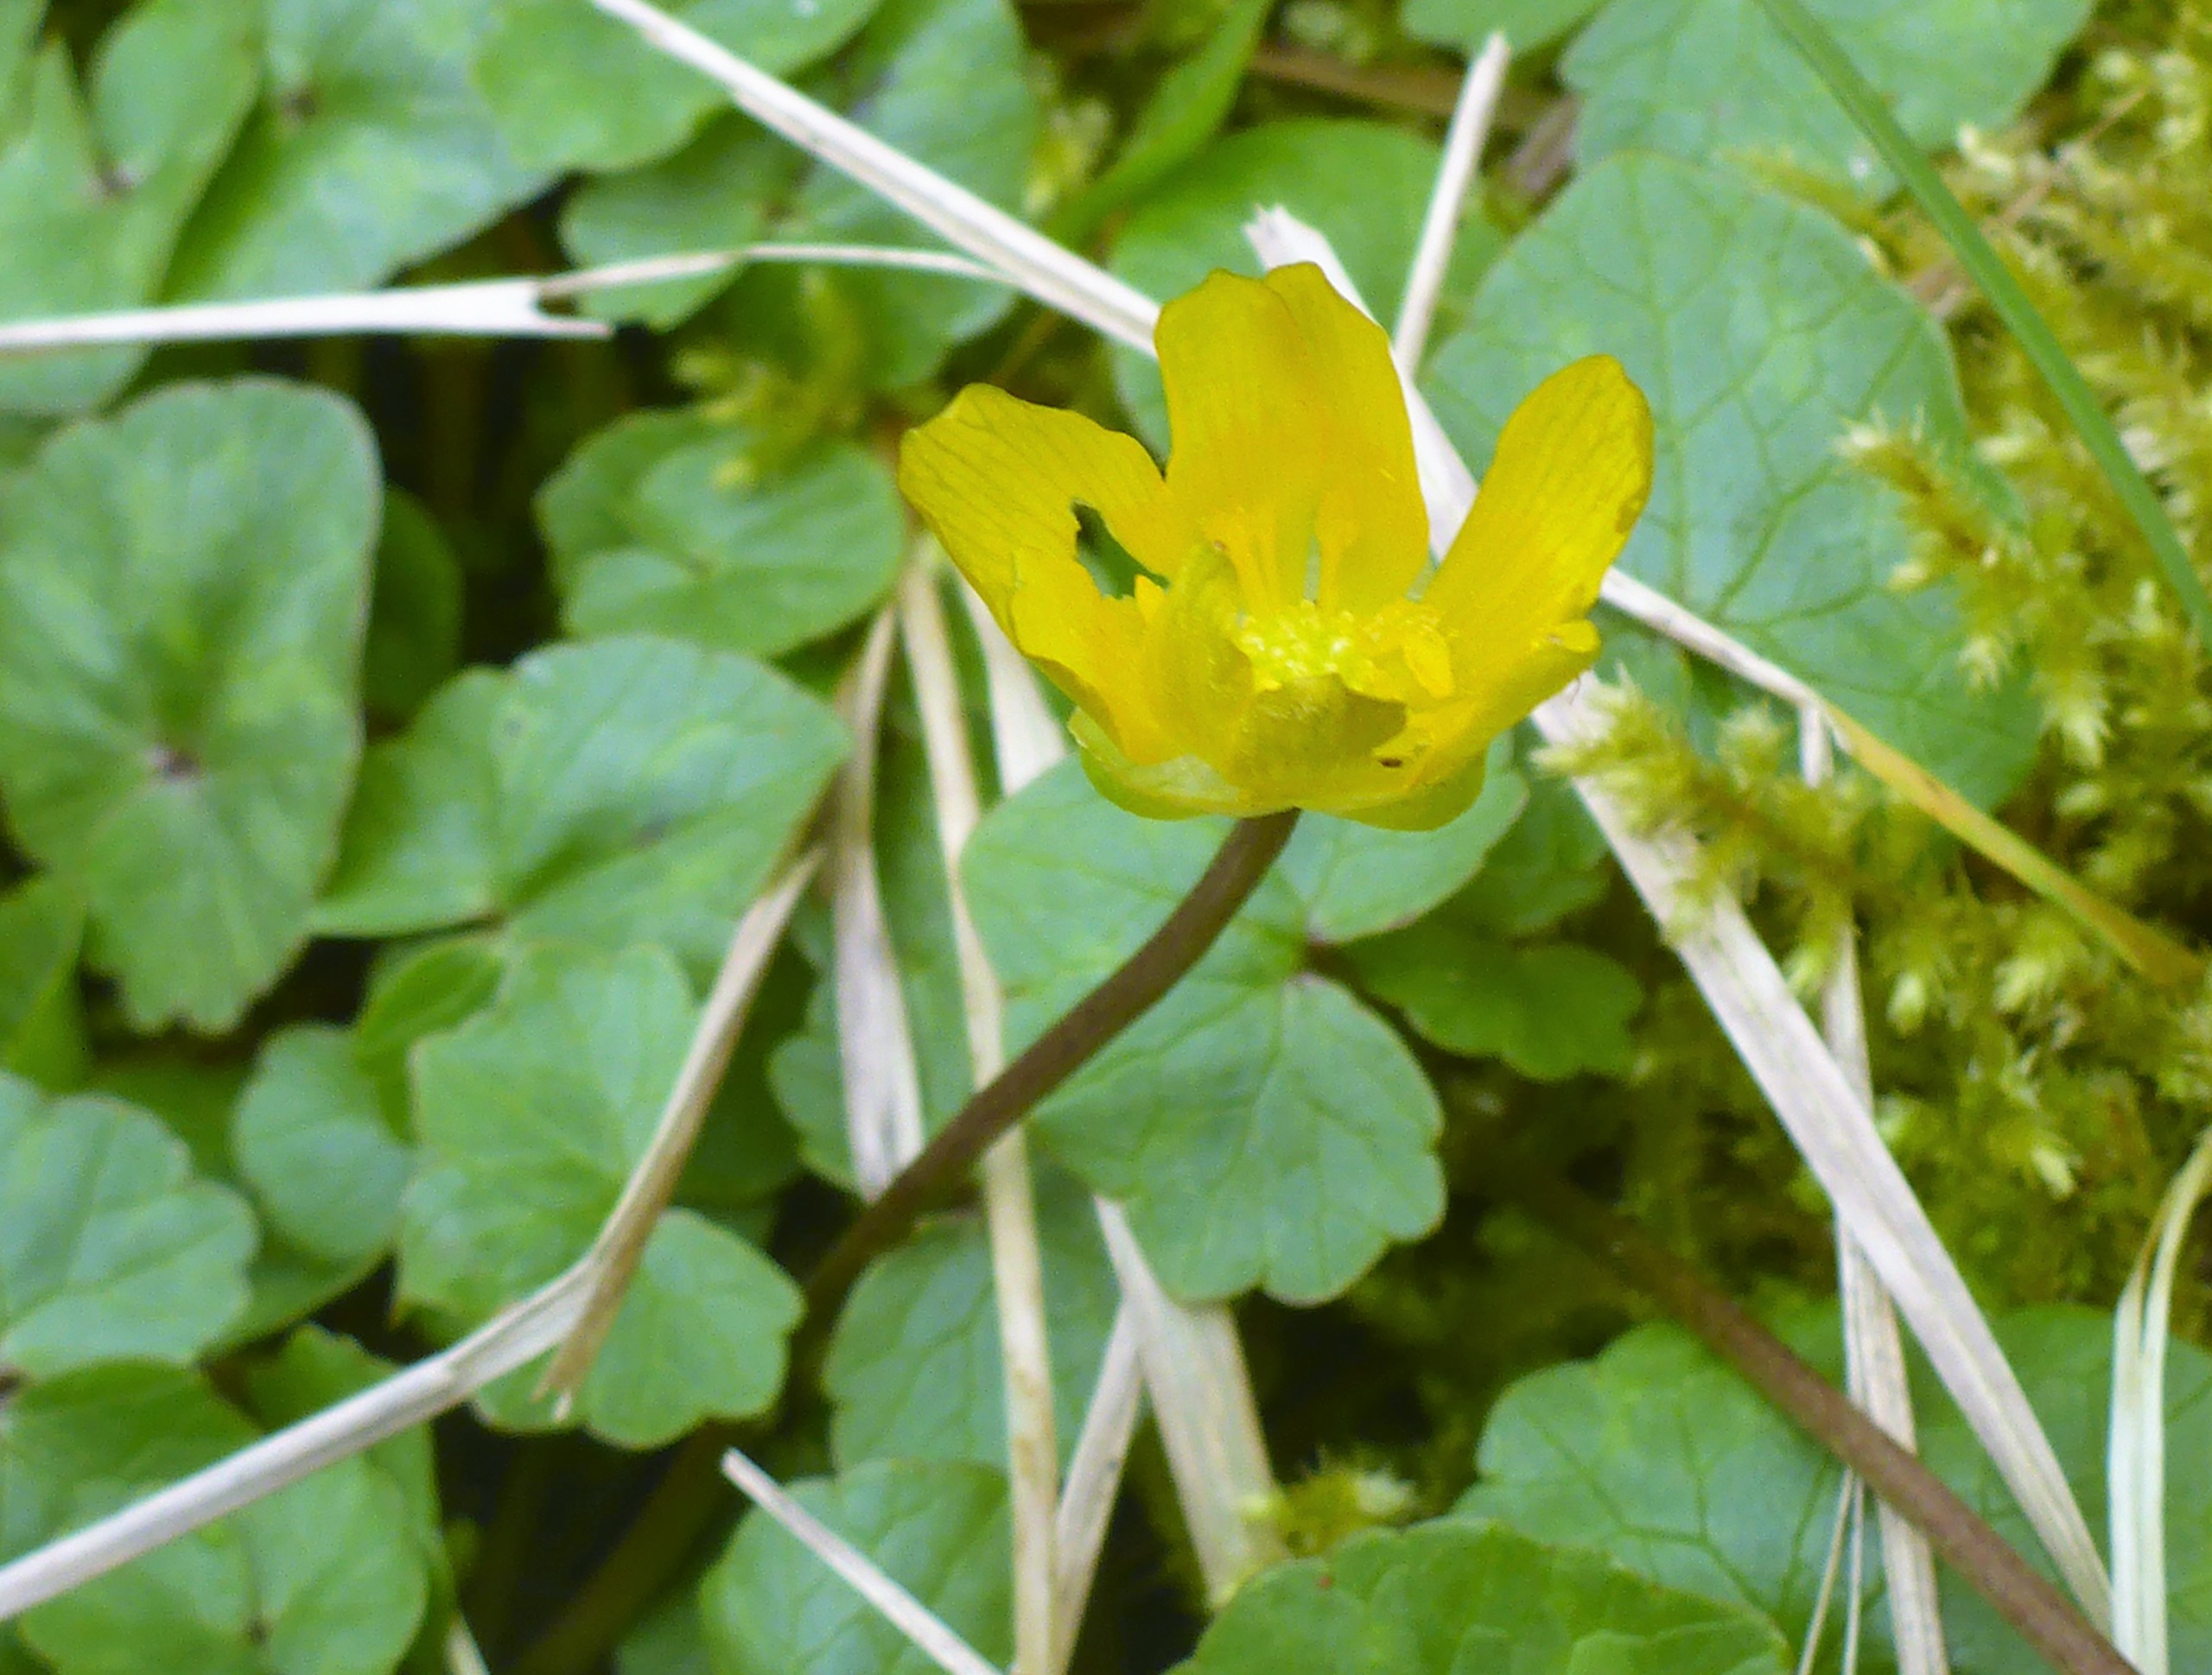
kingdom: Plantae
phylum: Tracheophyta
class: Magnoliopsida
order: Ranunculales
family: Ranunculaceae
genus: Ficaria
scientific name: Ficaria verna
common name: Vorterod
